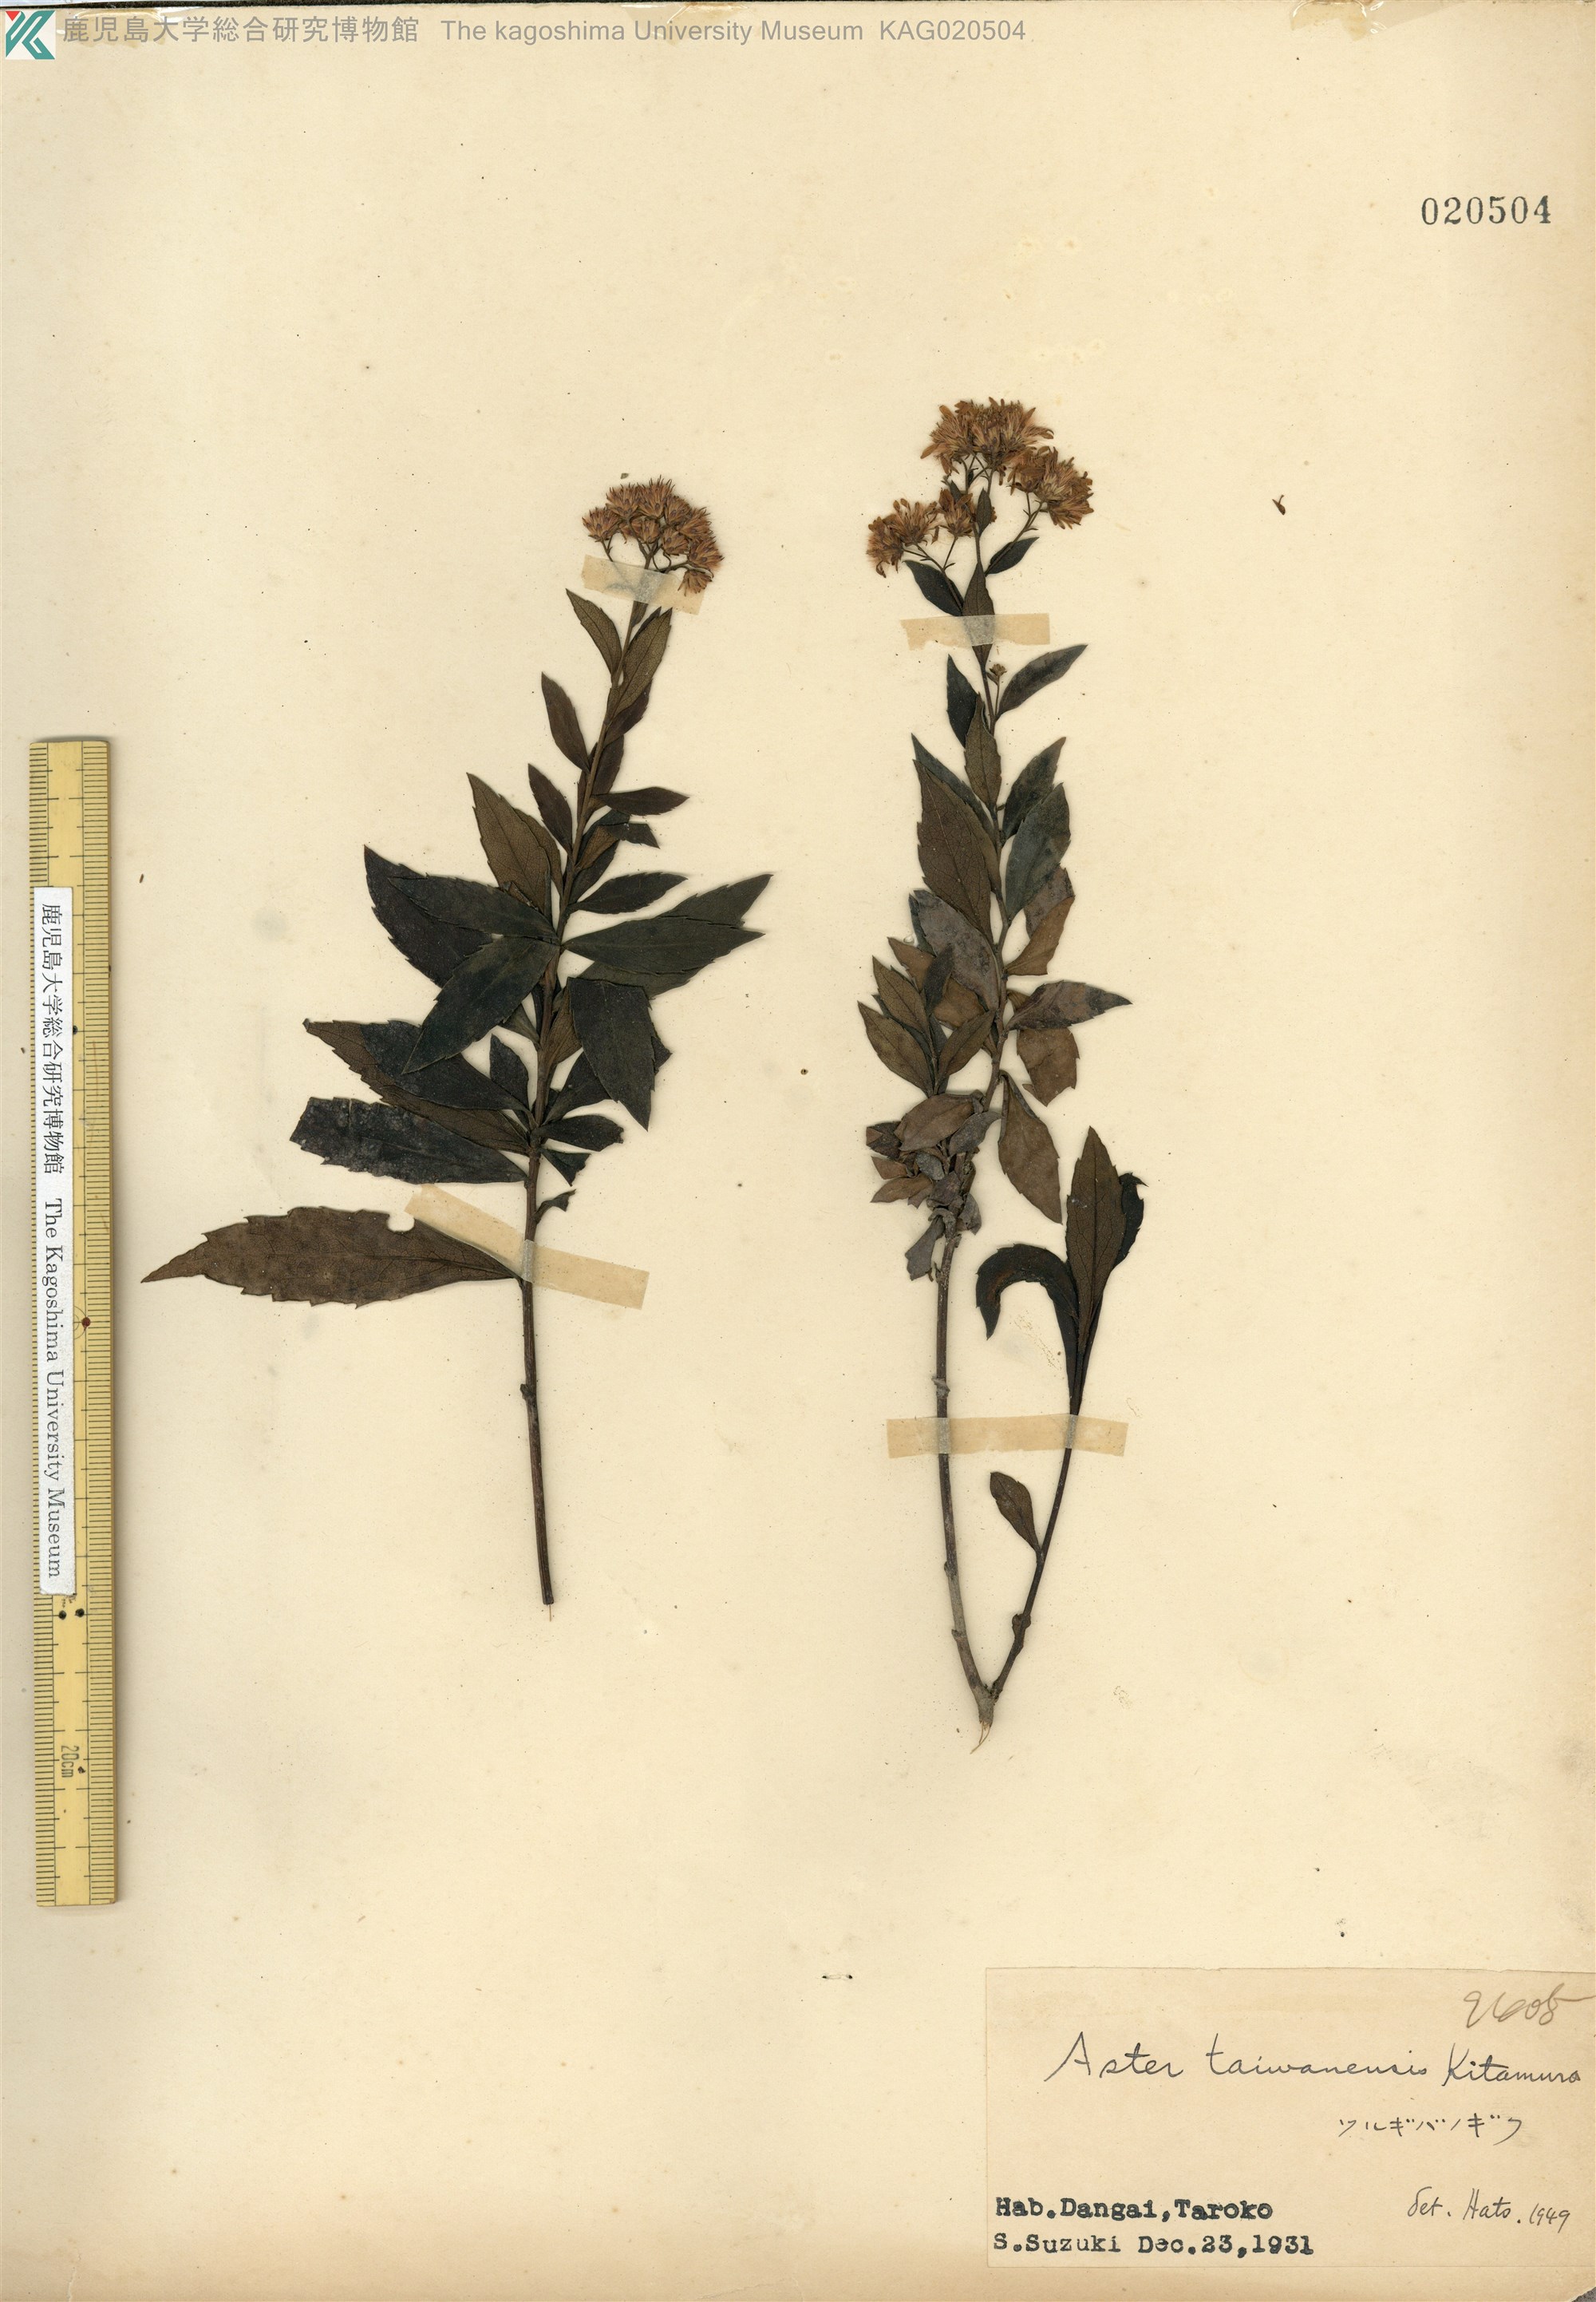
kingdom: Plantae
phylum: Tracheophyta
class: Magnoliopsida
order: Asterales
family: Asteraceae
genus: Aster
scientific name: Aster taiwanensis
